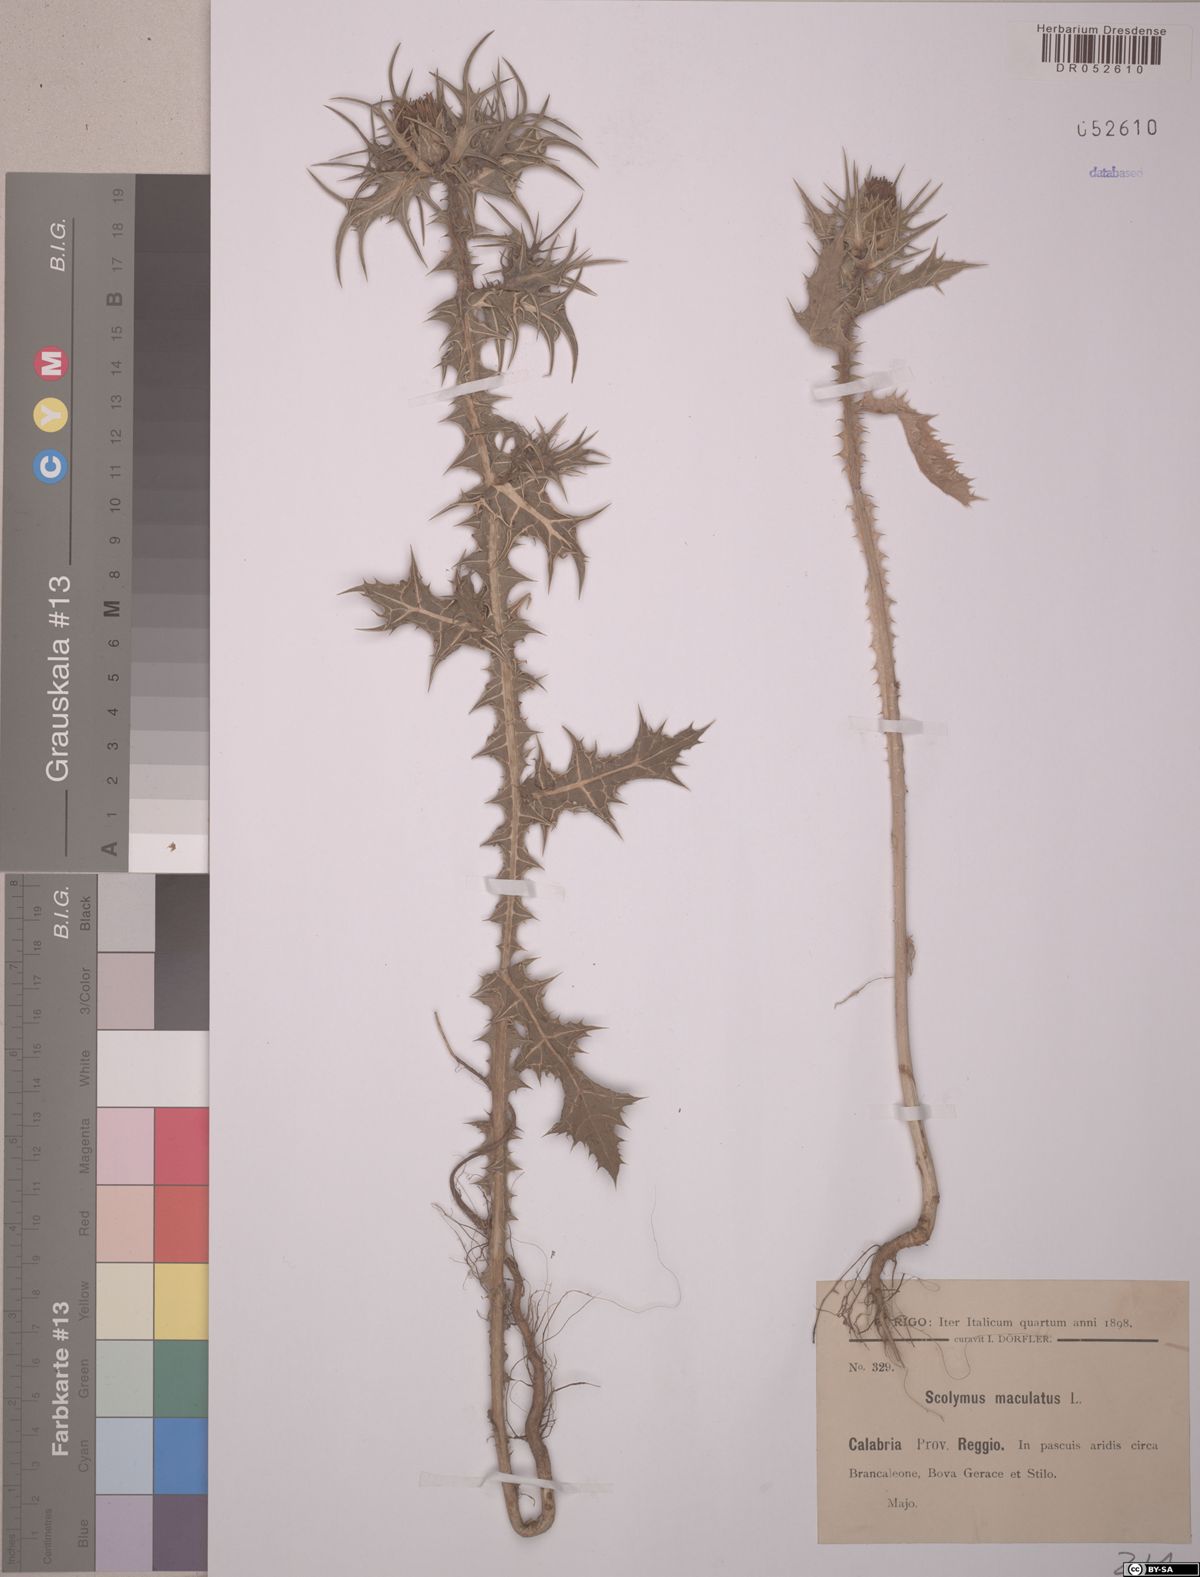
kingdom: Plantae
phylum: Tracheophyta
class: Magnoliopsida
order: Asterales
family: Asteraceae
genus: Scolymus
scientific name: Scolymus maculatus
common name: Spotted thistle
